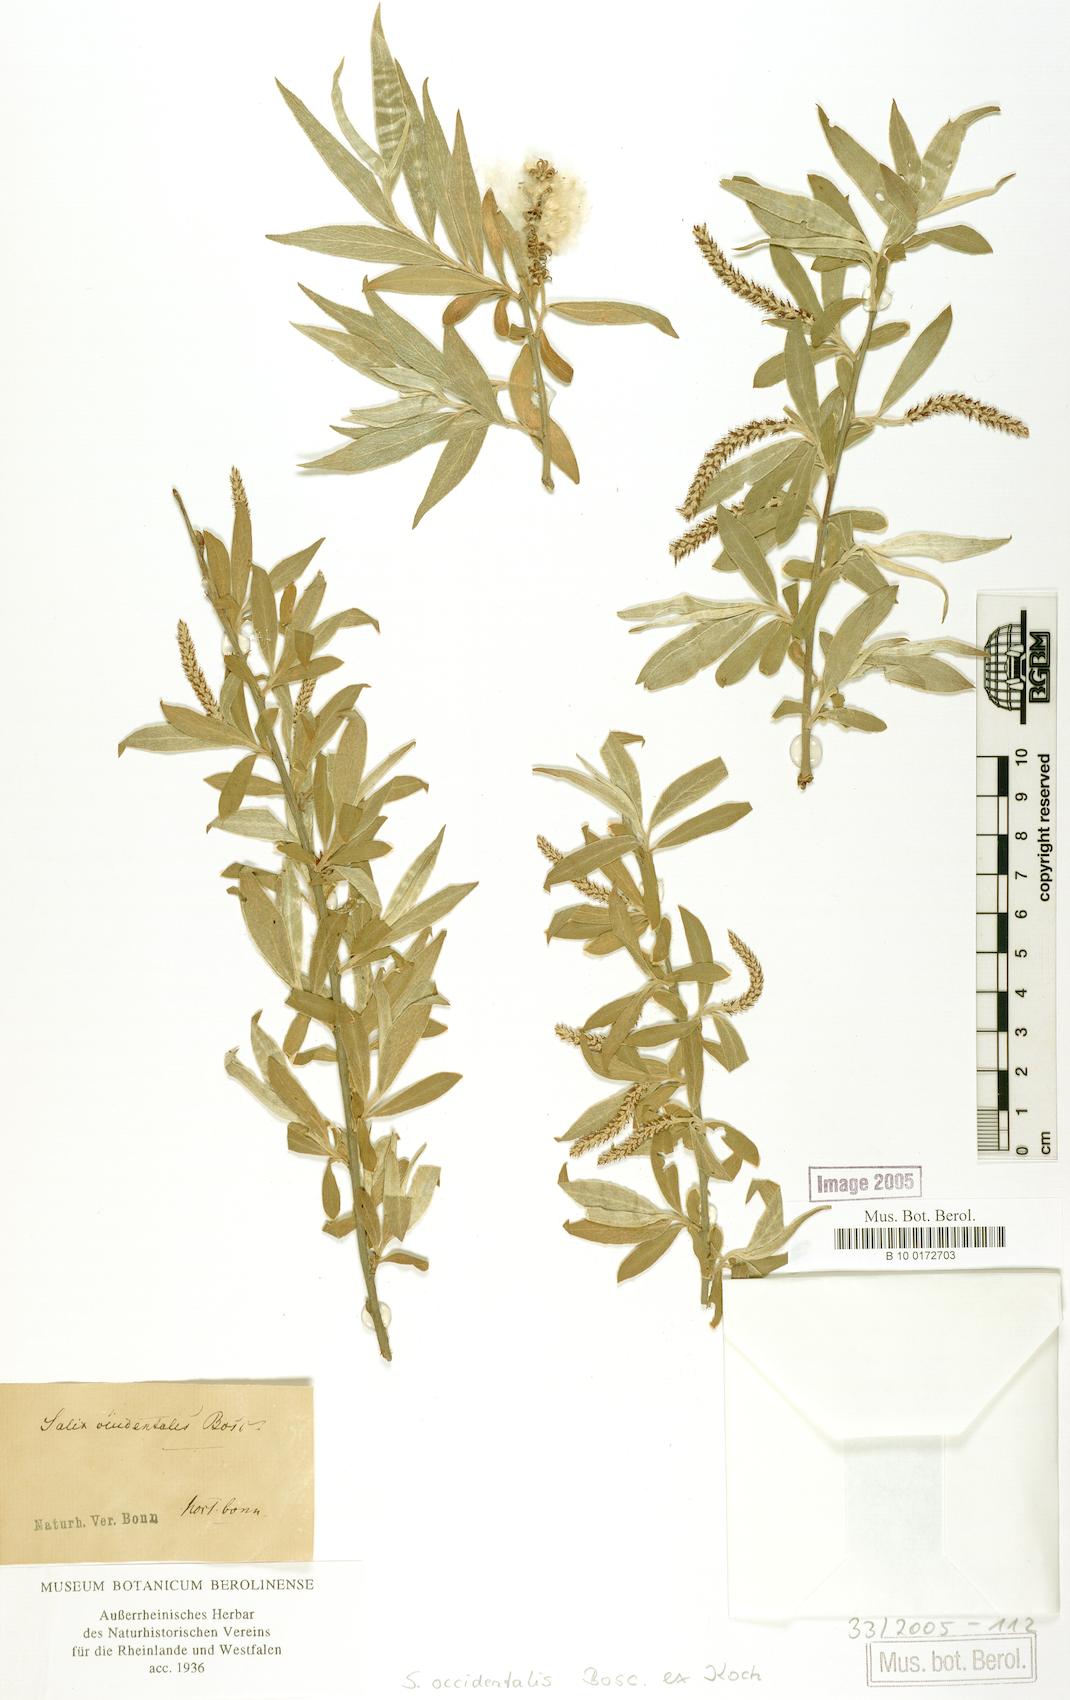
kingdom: Plantae
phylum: Tracheophyta
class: Magnoliopsida
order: Malpighiales
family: Salicaceae
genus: Salix
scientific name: Salix alba
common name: White willow
